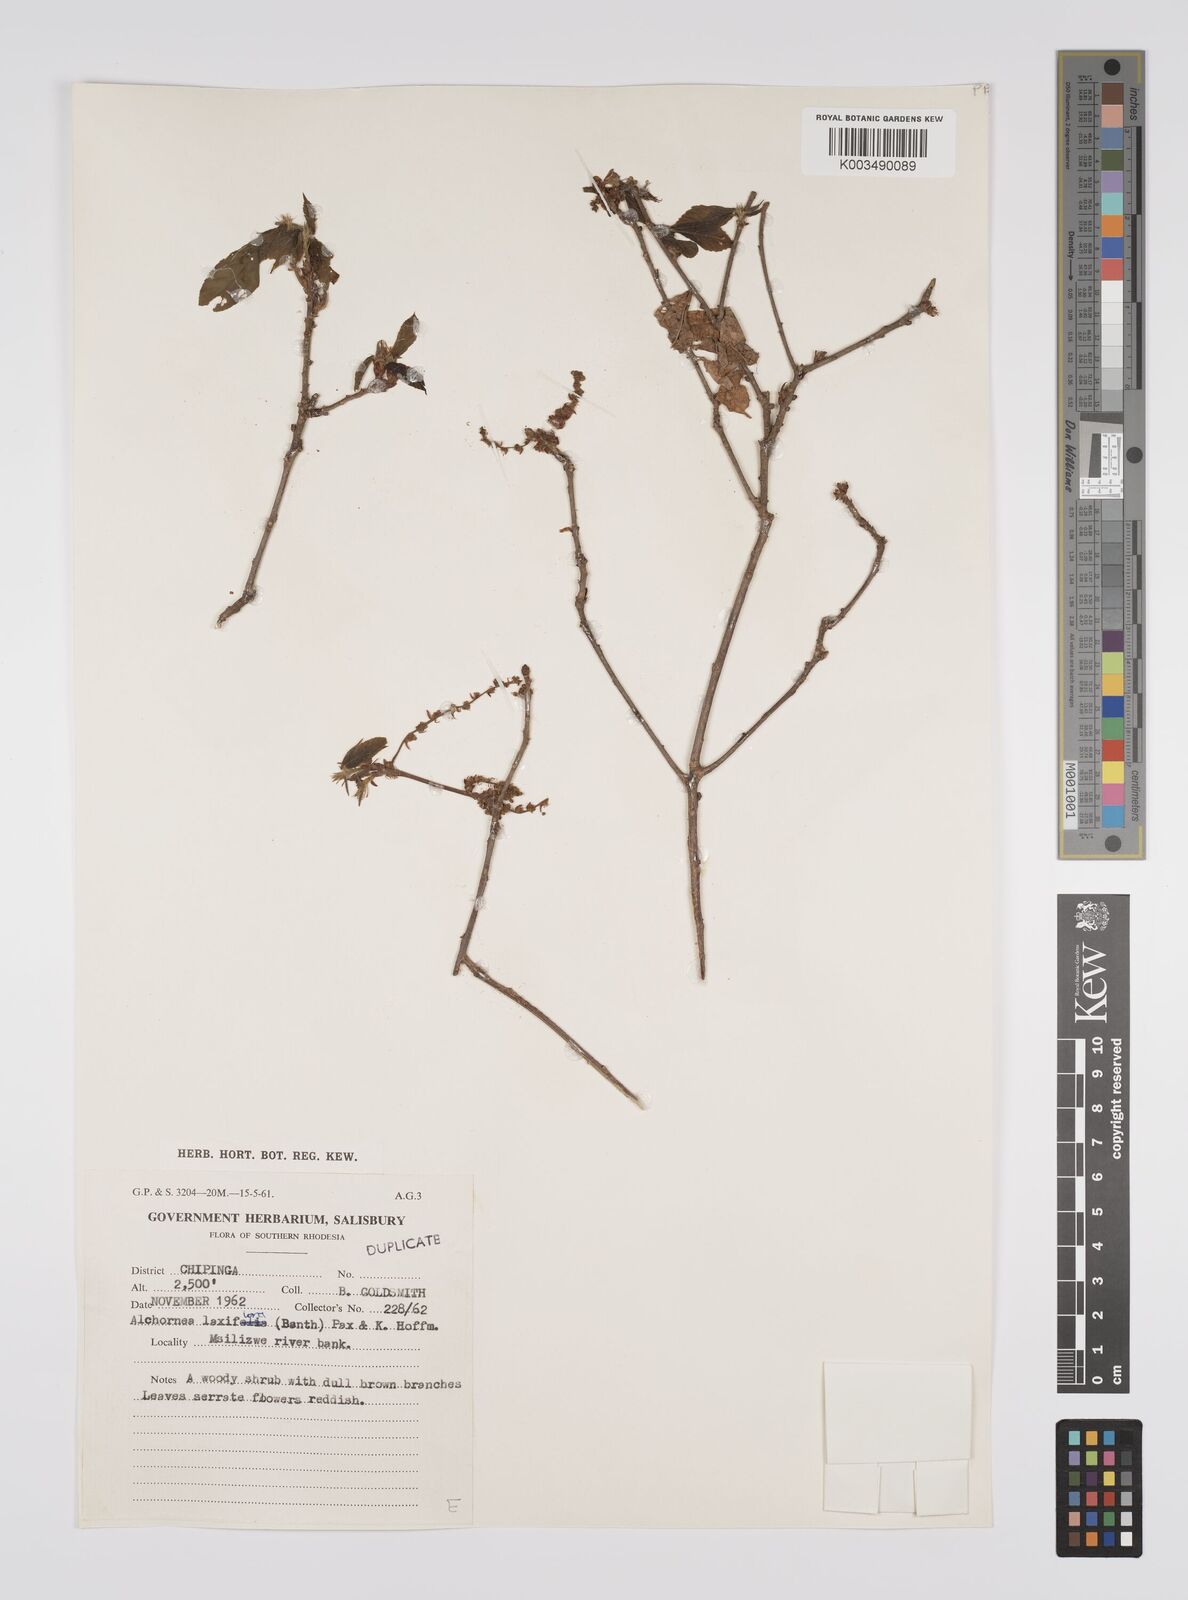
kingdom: Plantae
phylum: Tracheophyta
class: Magnoliopsida
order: Malpighiales
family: Euphorbiaceae
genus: Alchornea
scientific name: Alchornea laxiflora
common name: Lowveld bead-string
